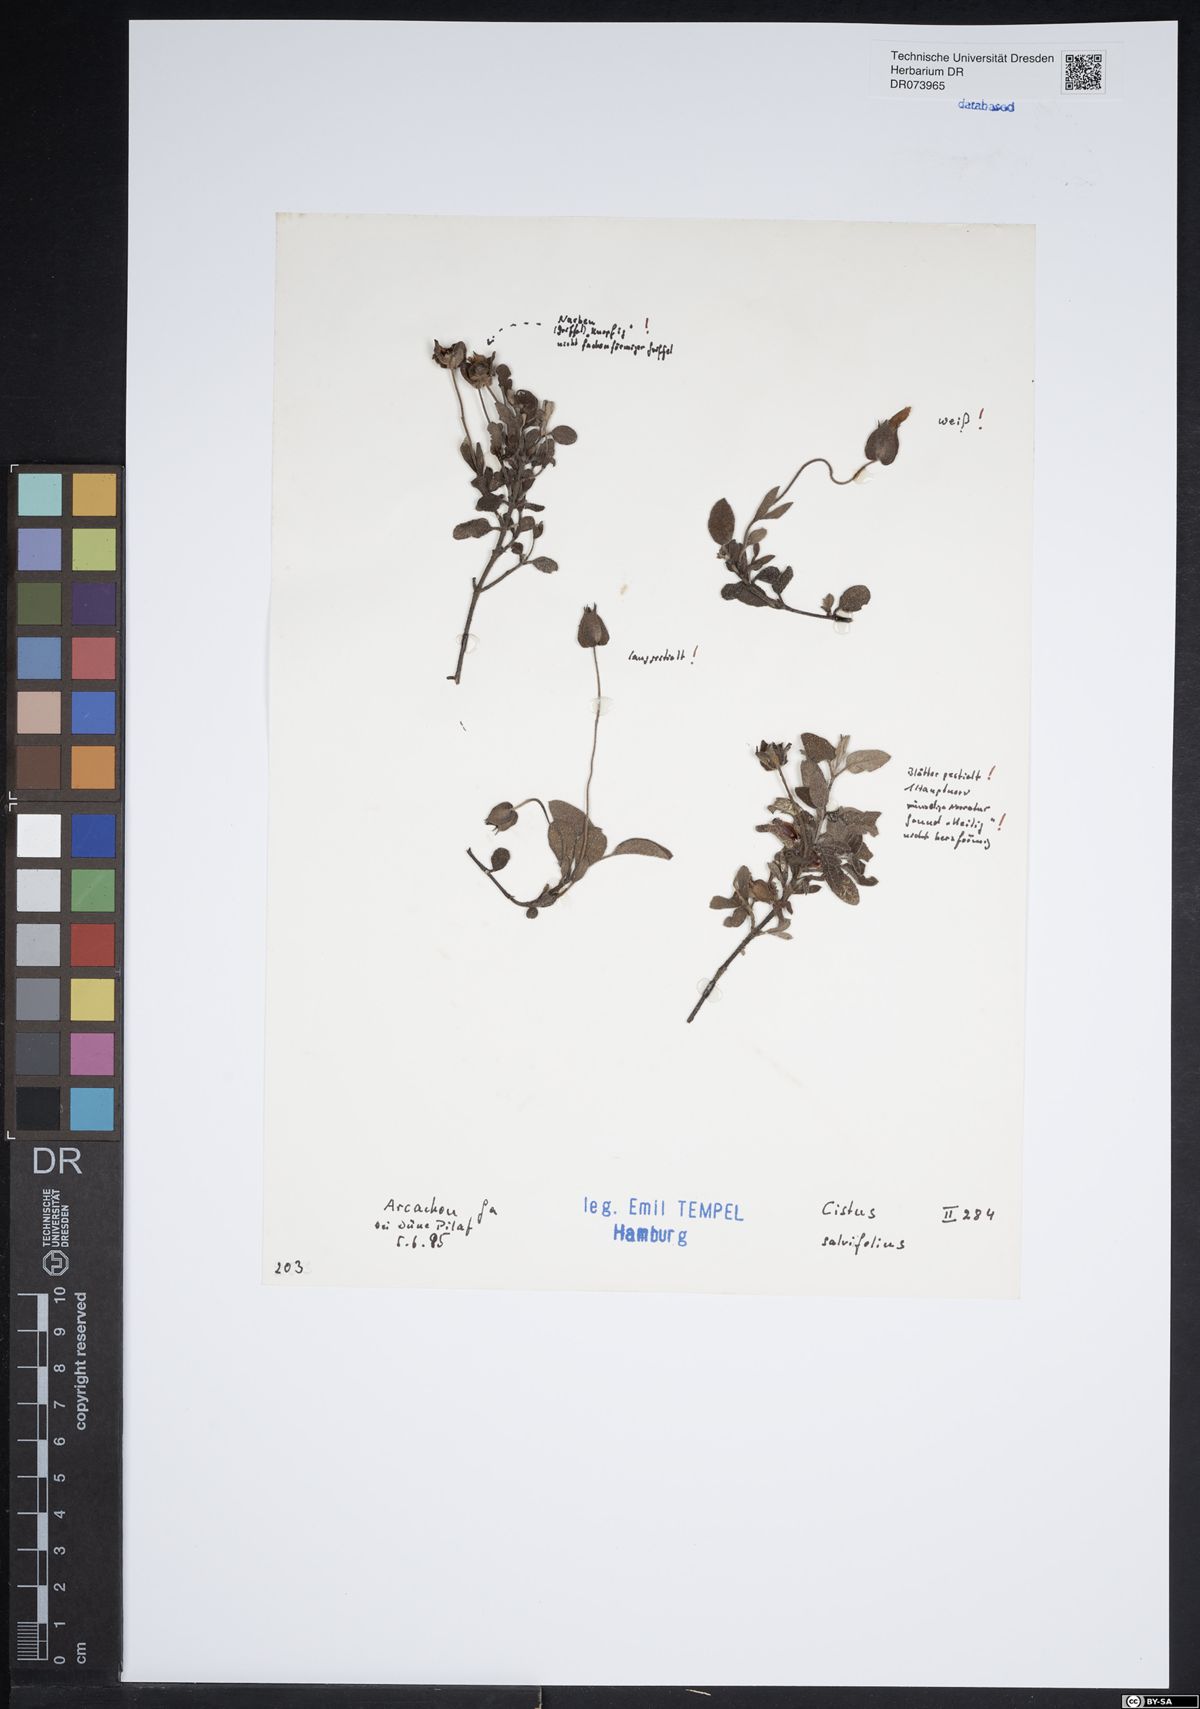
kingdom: Plantae
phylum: Tracheophyta
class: Magnoliopsida
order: Malvales
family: Cistaceae
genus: Cistus
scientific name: Cistus salviifolius
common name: Salvia cistus
